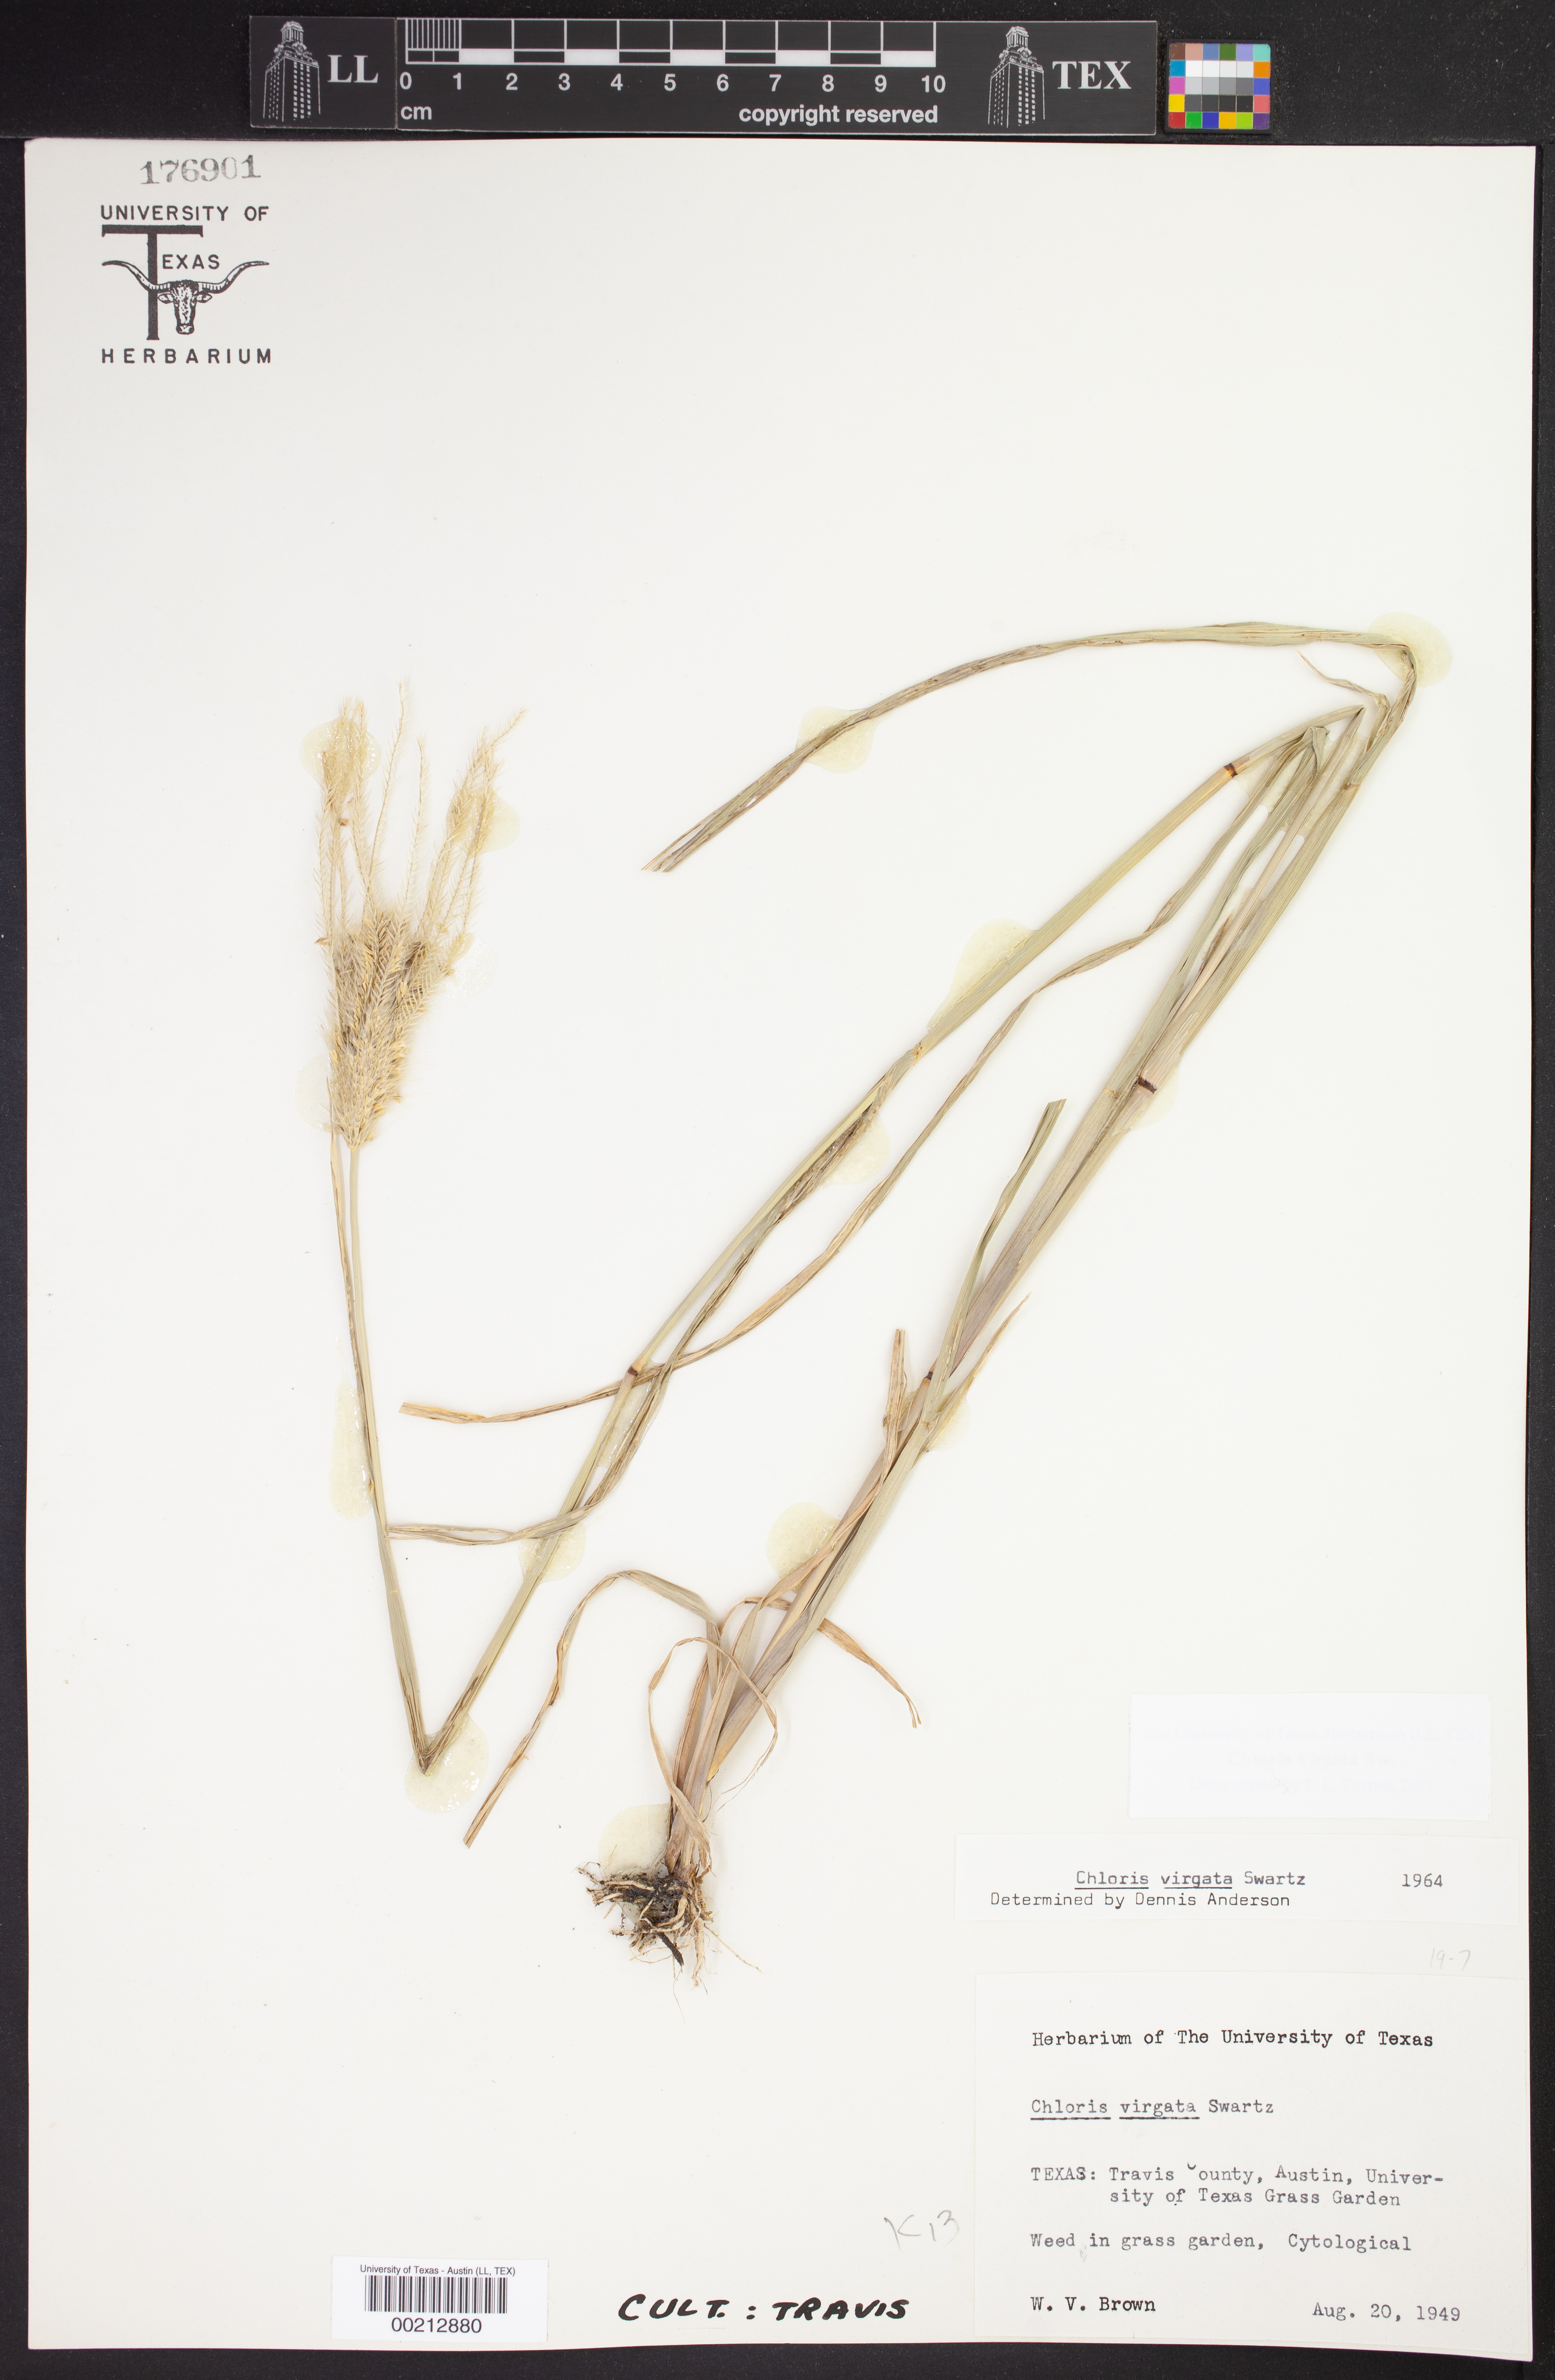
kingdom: Plantae
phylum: Tracheophyta
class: Liliopsida
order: Poales
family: Poaceae
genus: Chloris
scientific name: Chloris virgata
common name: Feathery rhodes-grass
